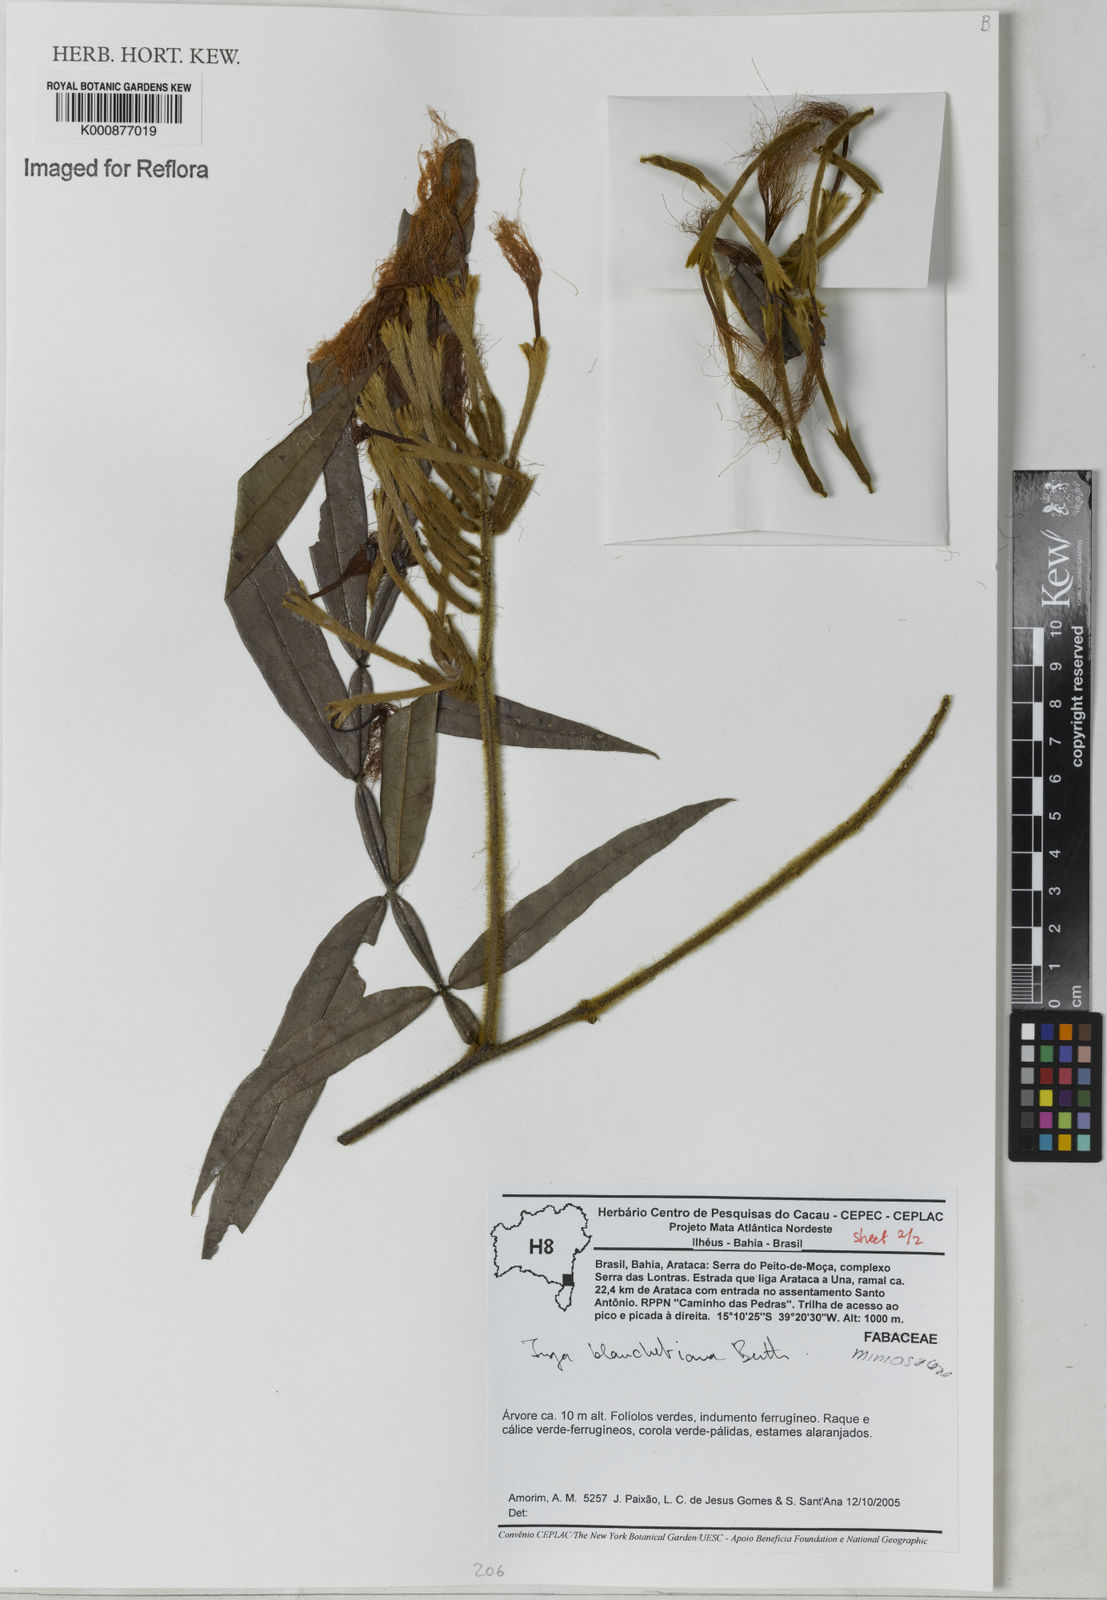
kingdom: Plantae
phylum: Tracheophyta
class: Magnoliopsida
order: Fabales
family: Fabaceae
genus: Inga
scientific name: Inga blanchetiana
